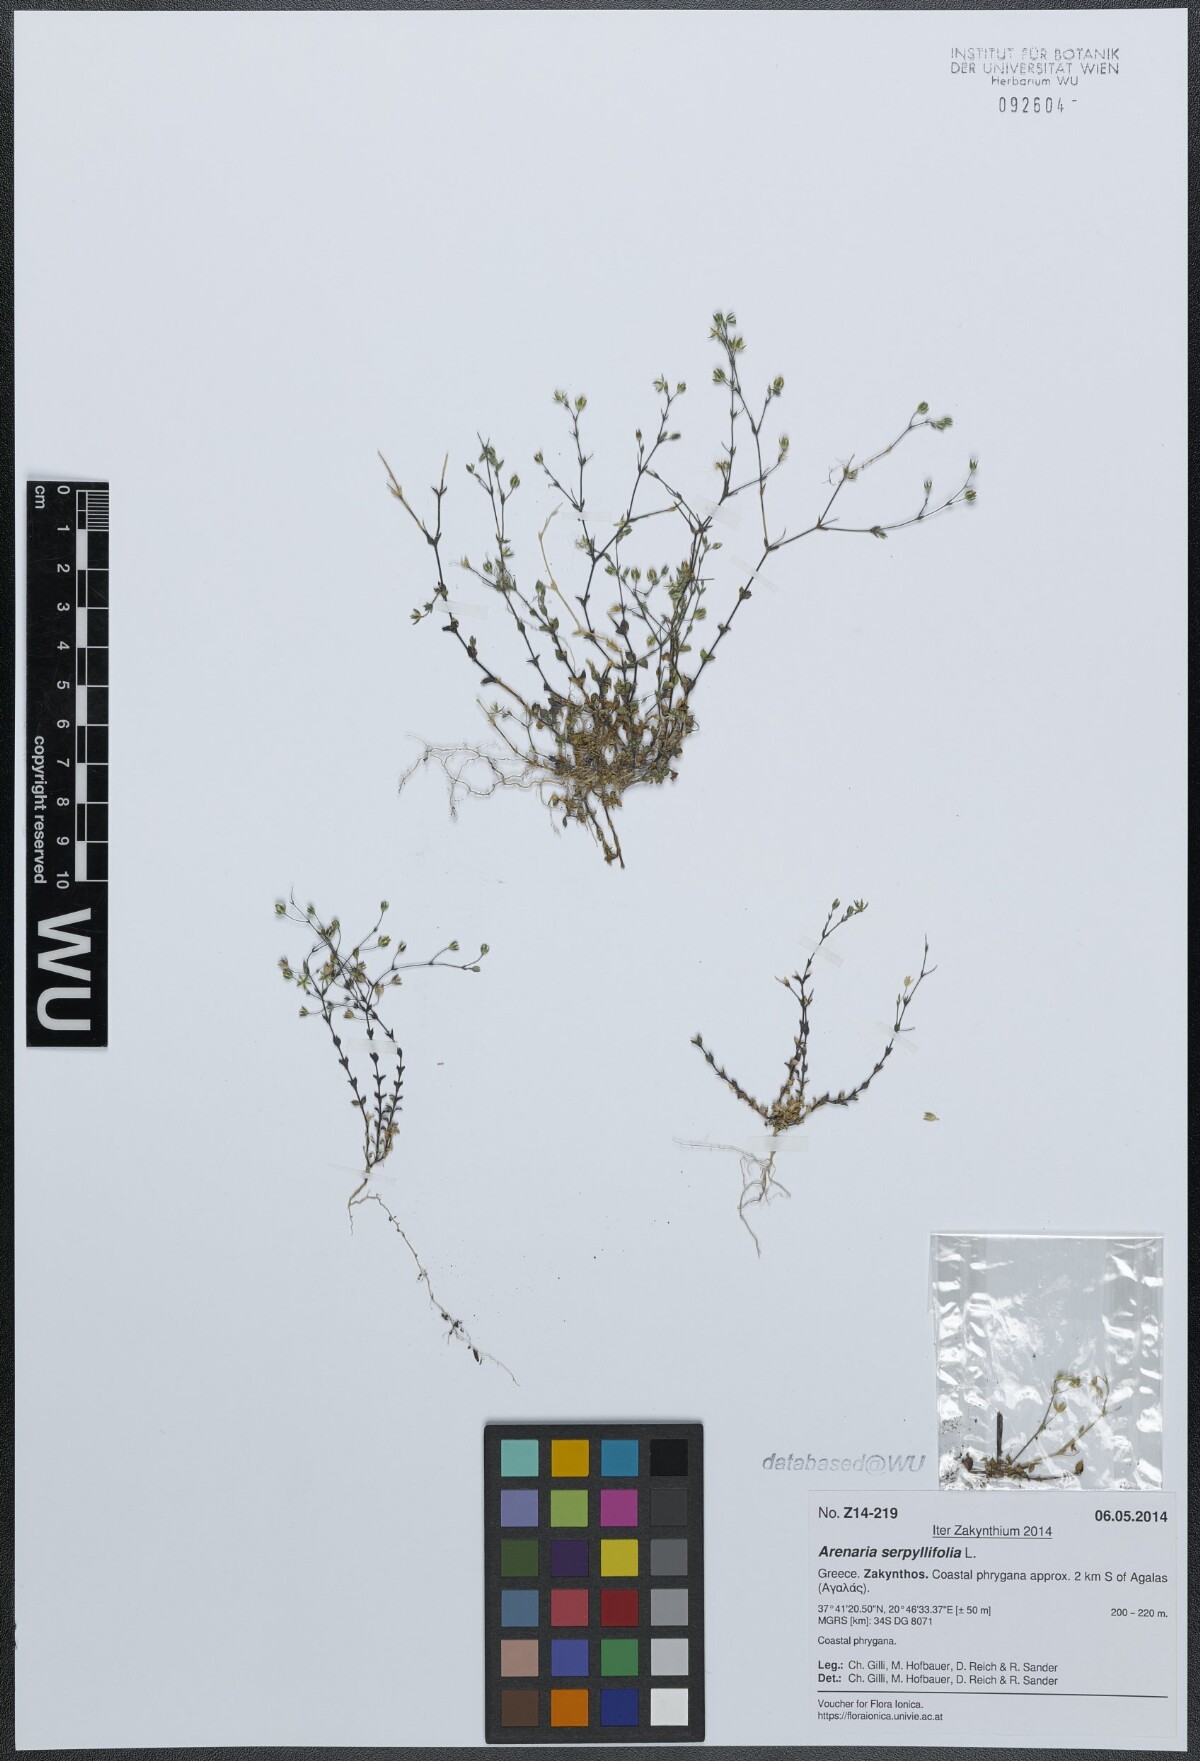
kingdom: Plantae
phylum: Tracheophyta
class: Magnoliopsida
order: Caryophyllales
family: Caryophyllaceae
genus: Arenaria
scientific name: Arenaria serpyllifolia
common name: Thyme-leaved sandwort
